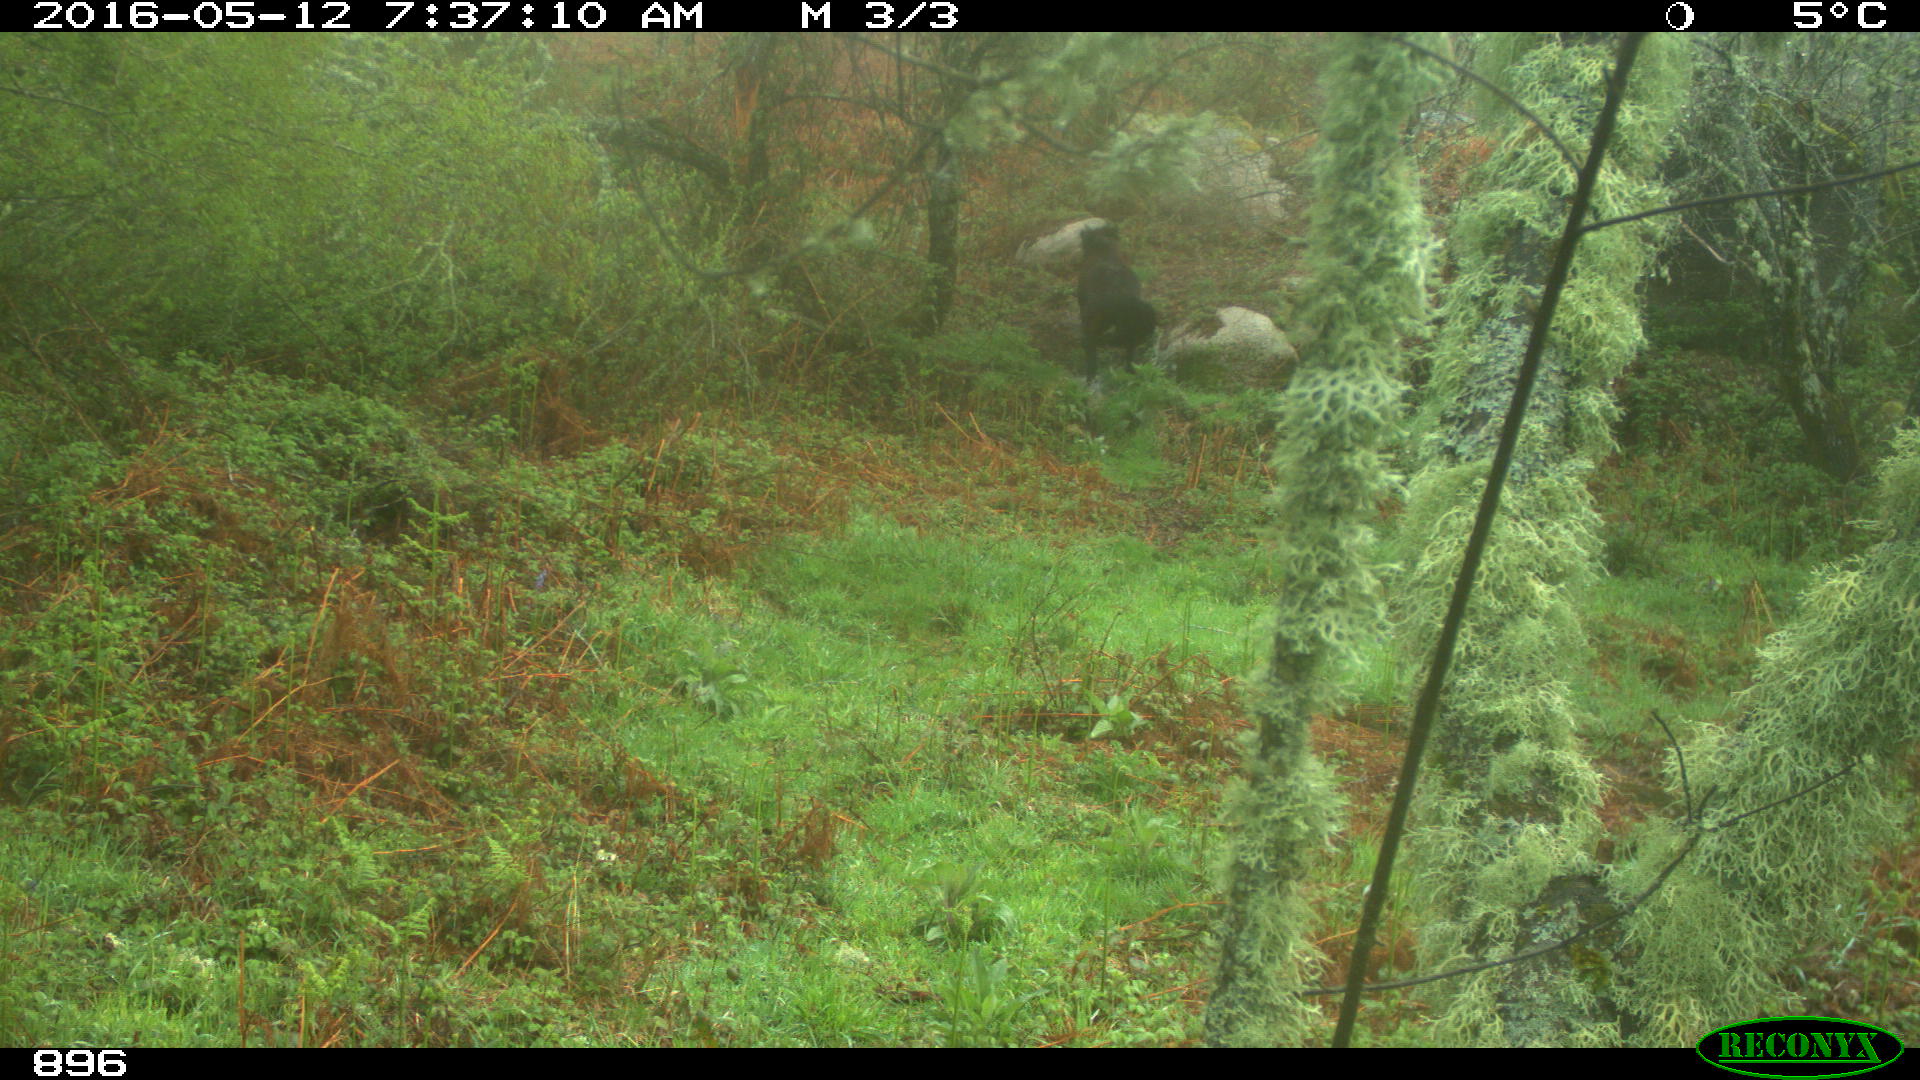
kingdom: Animalia
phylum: Chordata
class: Mammalia
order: Perissodactyla
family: Equidae
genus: Equus
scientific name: Equus caballus
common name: Horse
